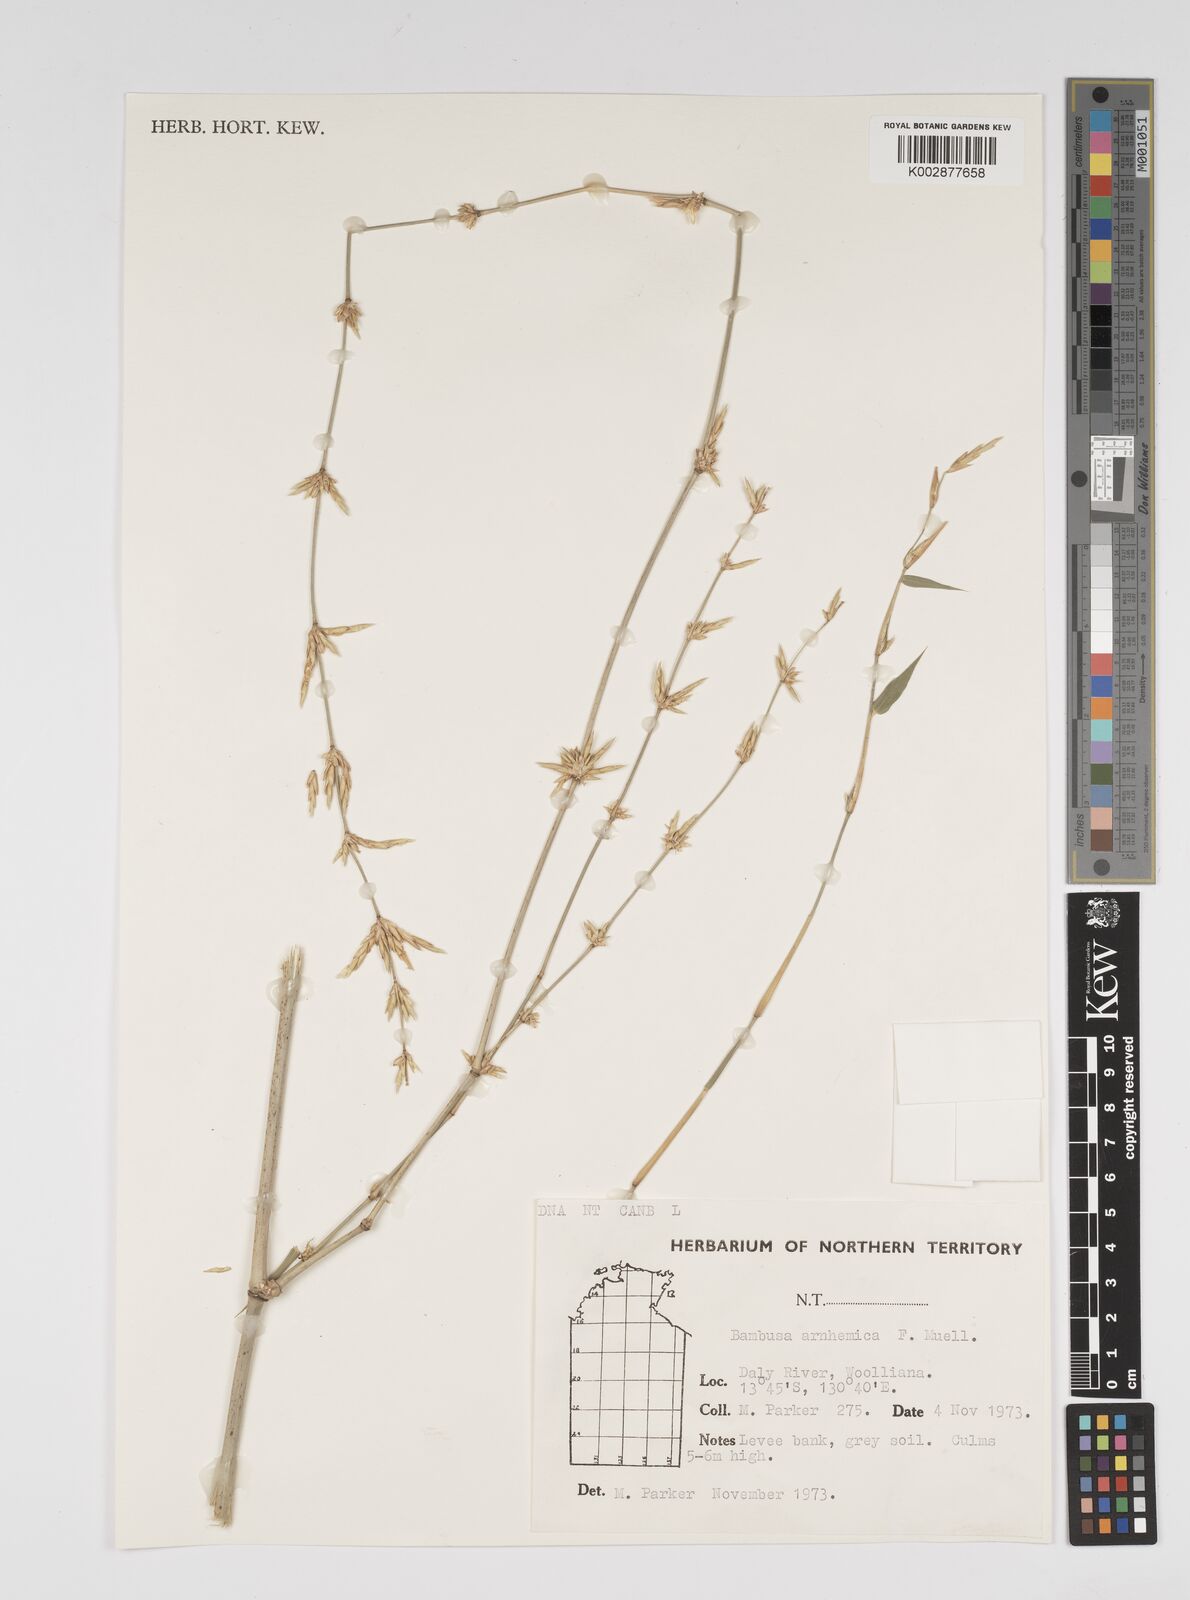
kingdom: Plantae
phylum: Tracheophyta
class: Liliopsida
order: Poales
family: Poaceae
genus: Bambusa
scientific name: Bambusa arnhemica
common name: Top-end bamboo
